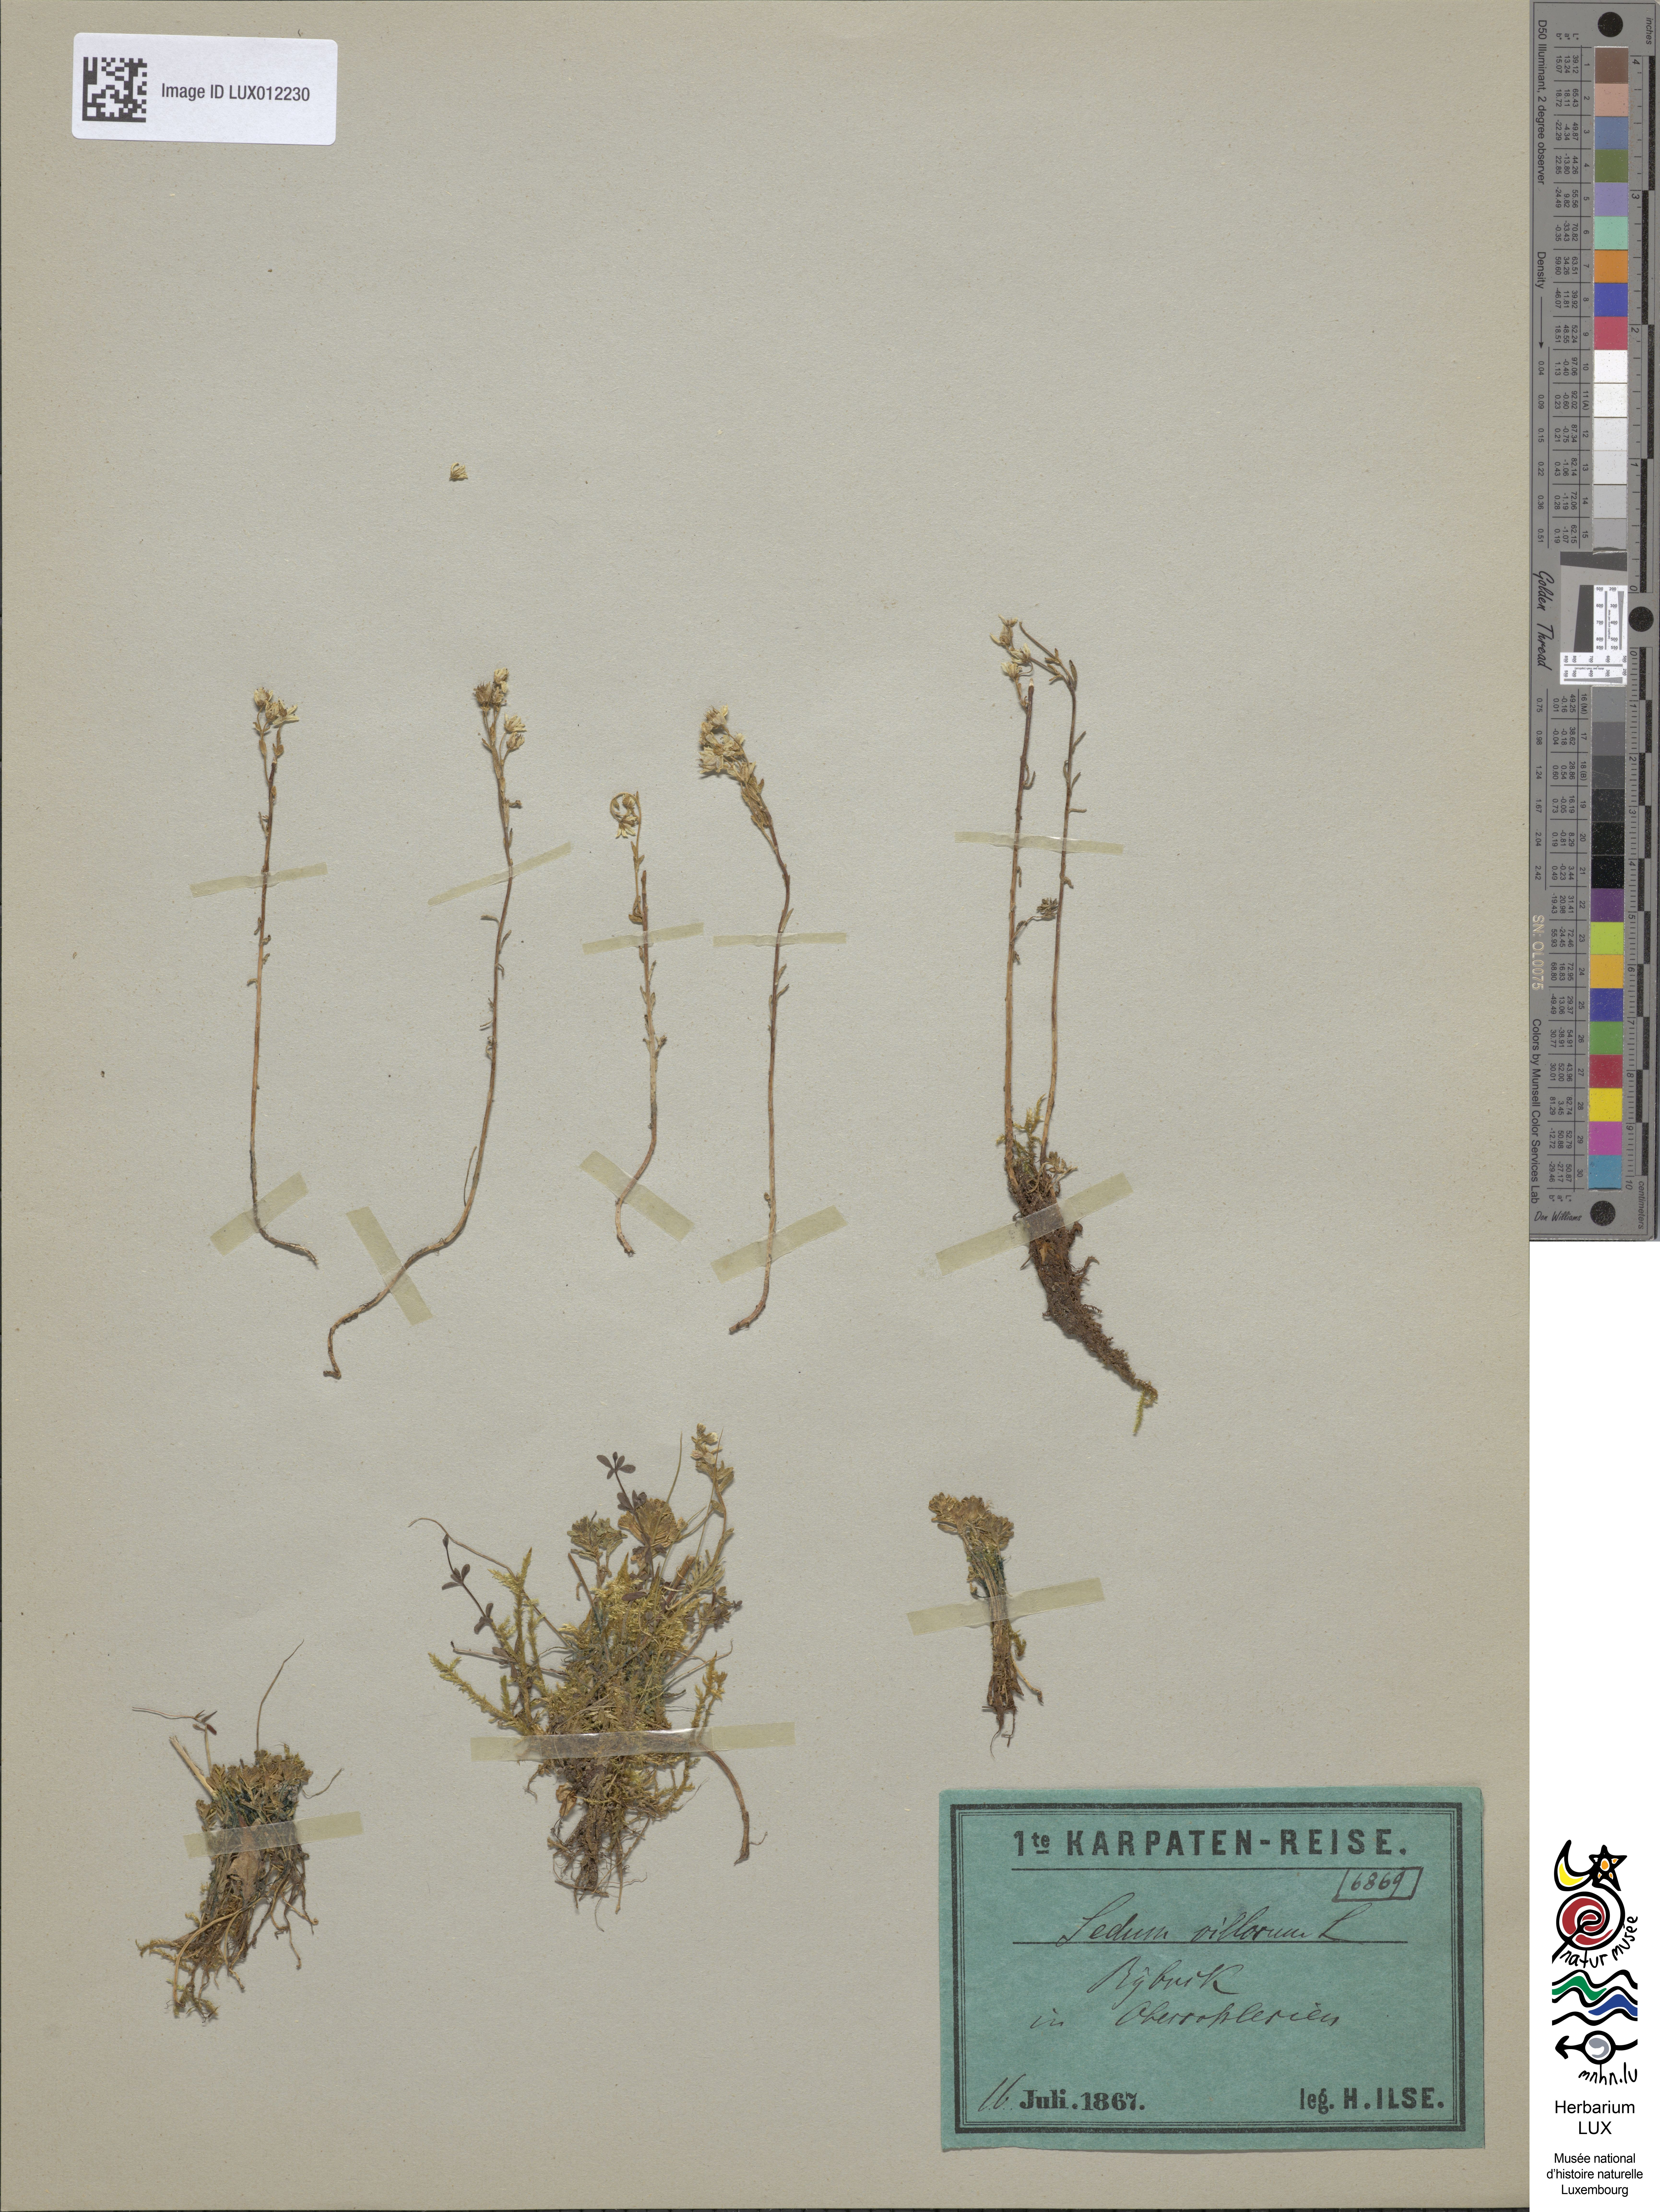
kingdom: Plantae
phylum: Tracheophyta
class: Magnoliopsida
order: Saxifragales
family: Crassulaceae
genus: Sedum
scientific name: Sedum villosum
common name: Hairy stonecrop
